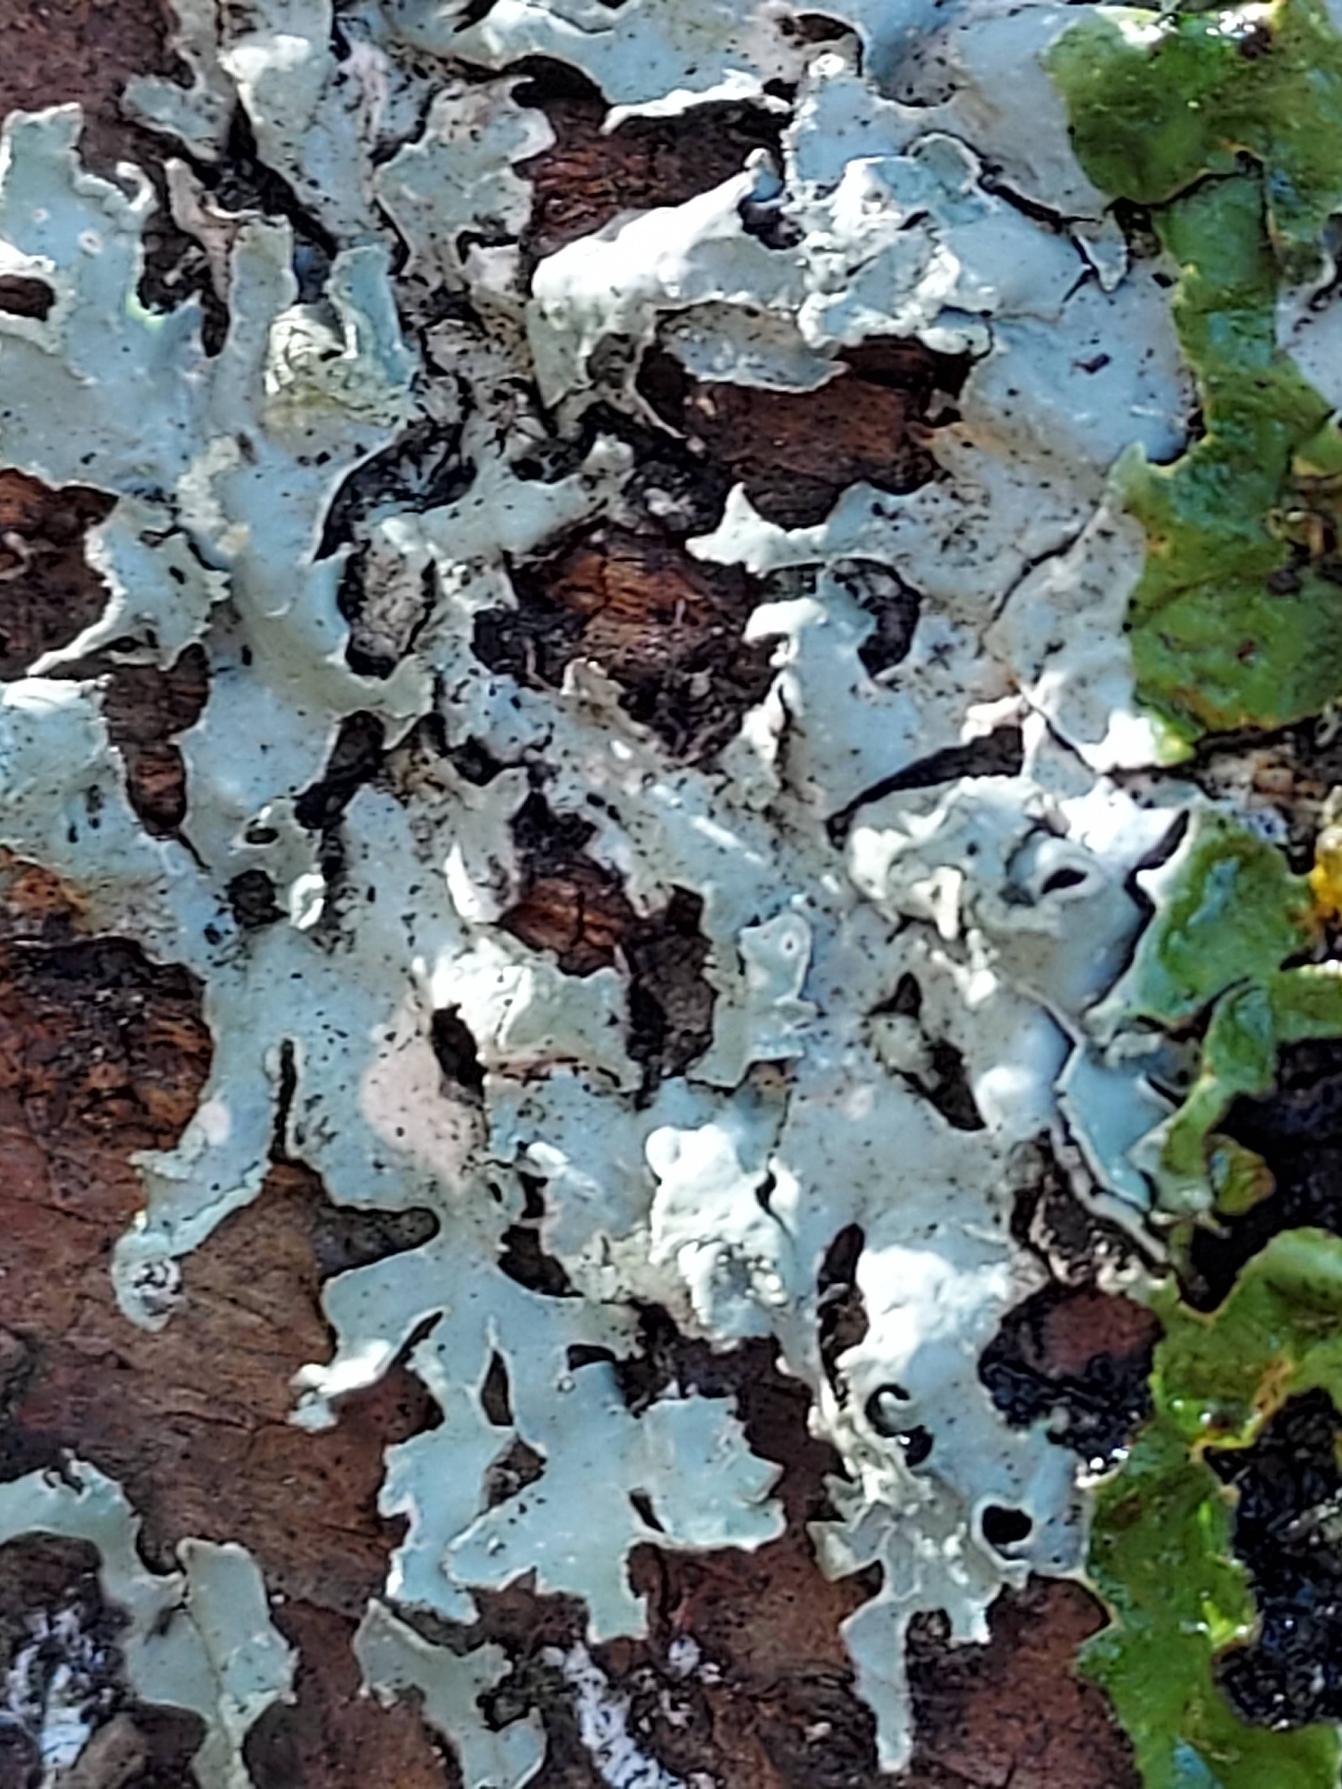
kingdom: Fungi
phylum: Ascomycota
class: Lecanoromycetes
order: Lecanorales
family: Parmeliaceae
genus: Parmelia
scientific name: Parmelia sulcata
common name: Rynket skållav
